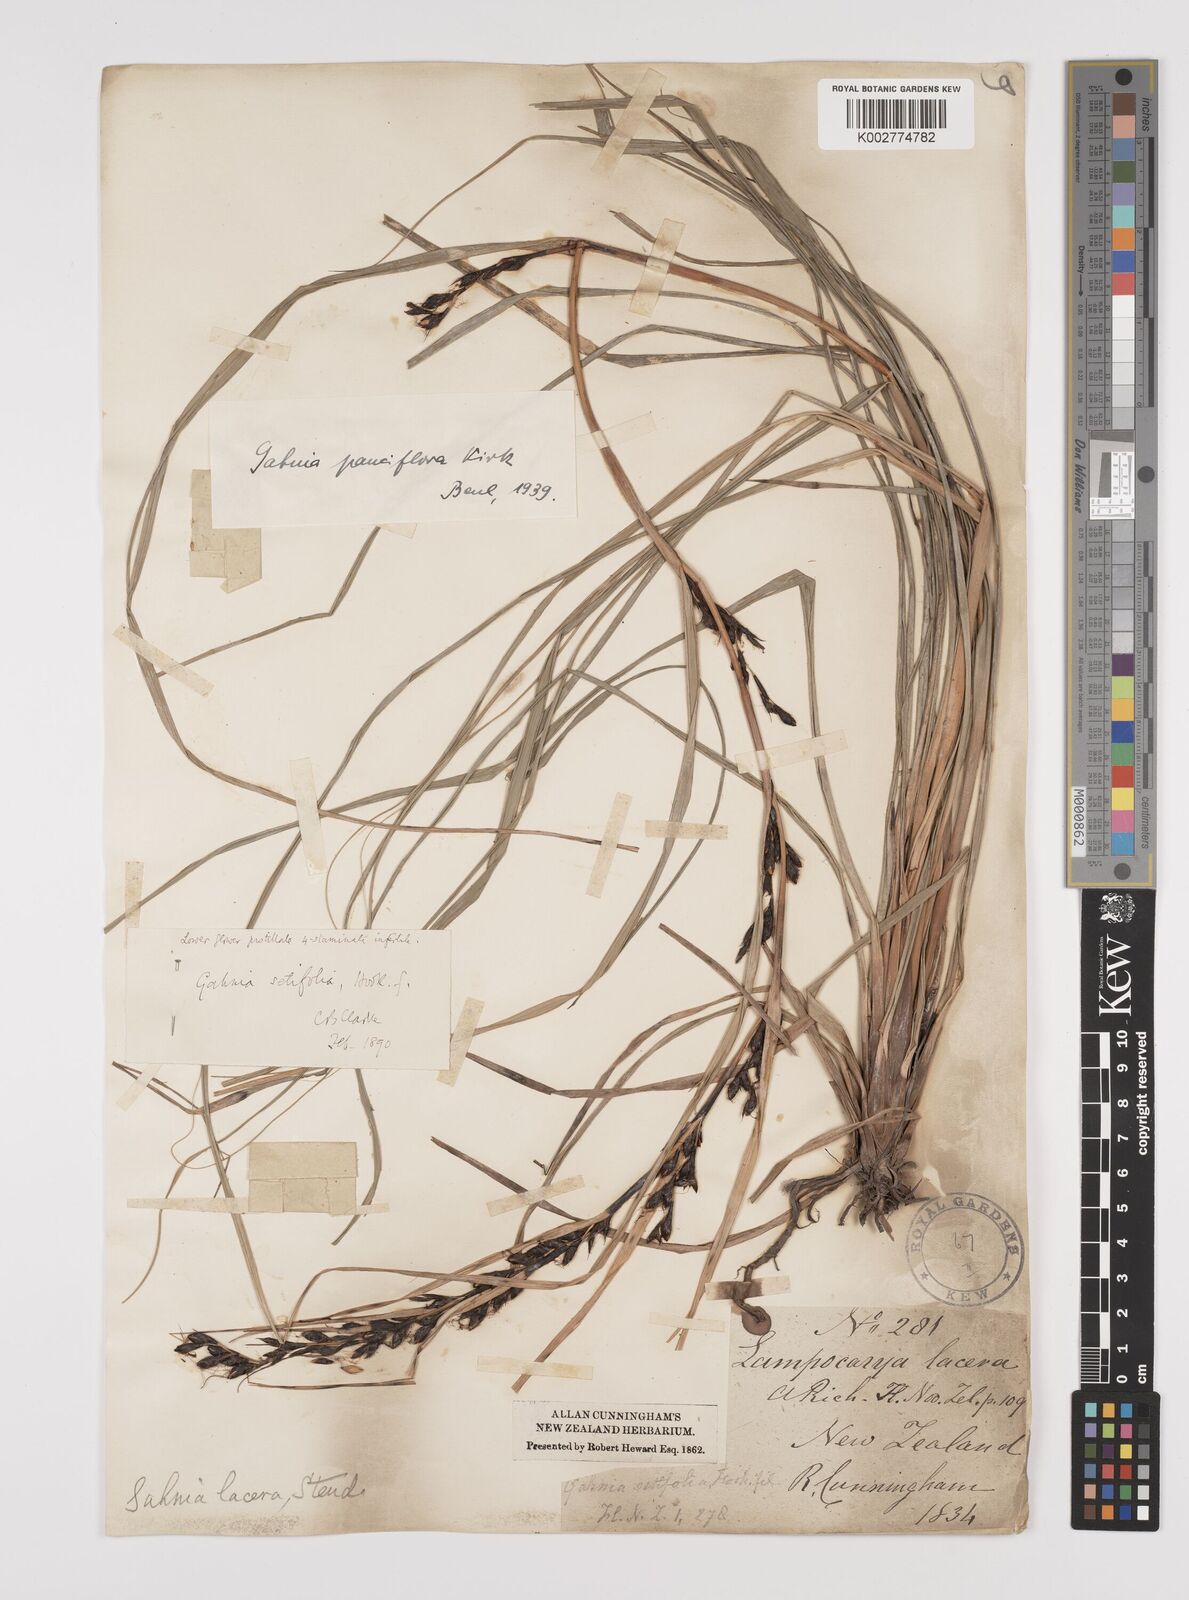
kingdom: Plantae
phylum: Tracheophyta
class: Liliopsida
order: Poales
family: Cyperaceae
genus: Gahnia
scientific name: Gahnia pauciflora
